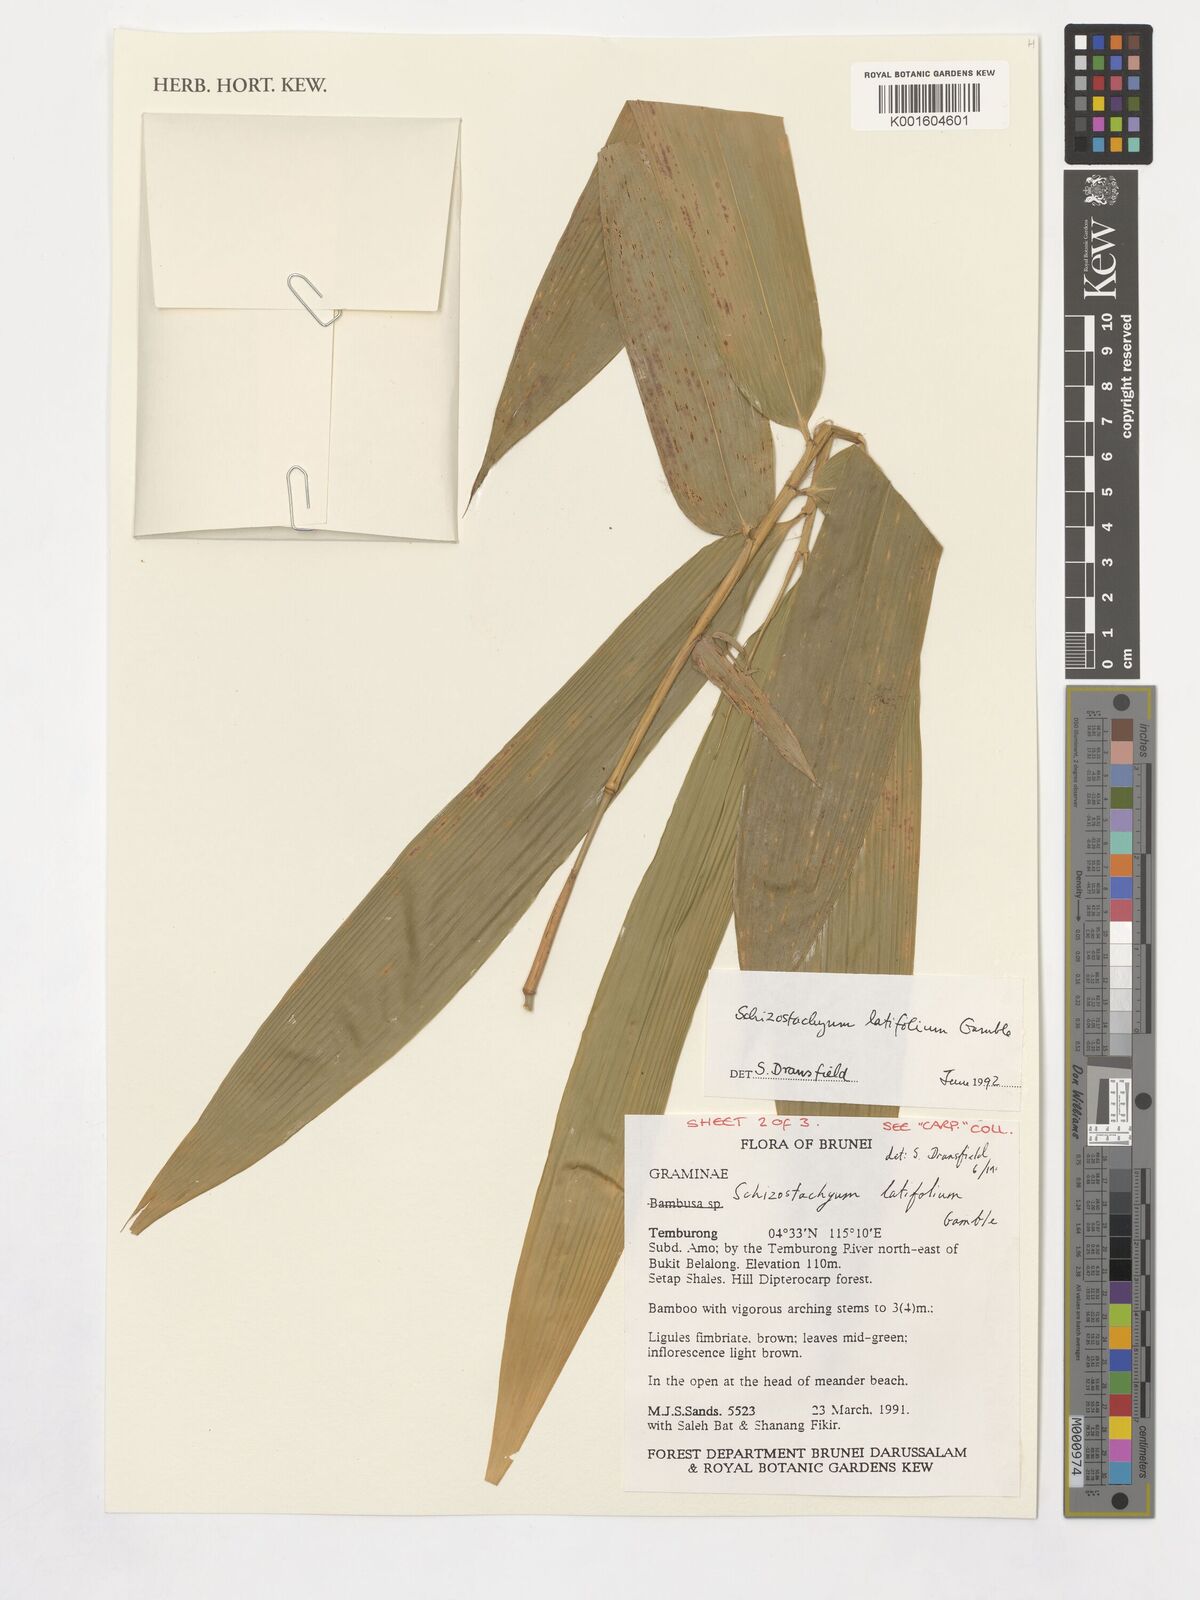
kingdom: Plantae
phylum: Tracheophyta
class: Liliopsida
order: Poales
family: Poaceae
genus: Schizostachyum
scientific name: Schizostachyum latifolium
